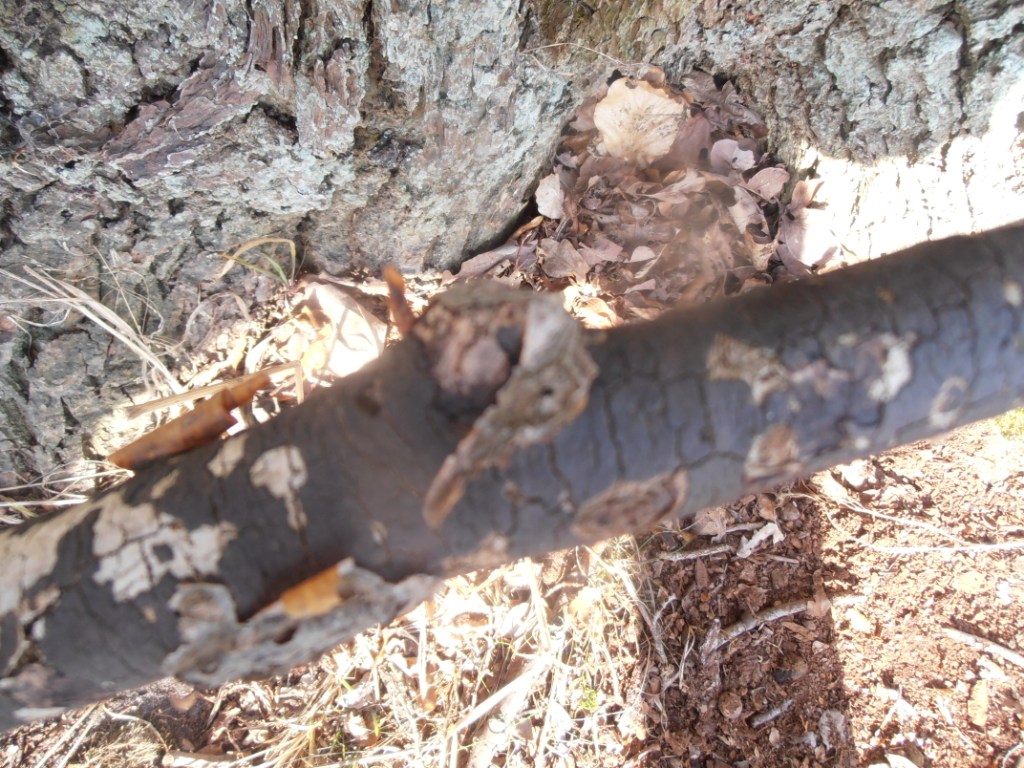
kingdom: Fungi
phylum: Ascomycota
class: Sordariomycetes
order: Xylariales
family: Diatrypaceae
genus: Diatrype
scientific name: Diatrype decorticata
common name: barksprænger-kulskorpe
